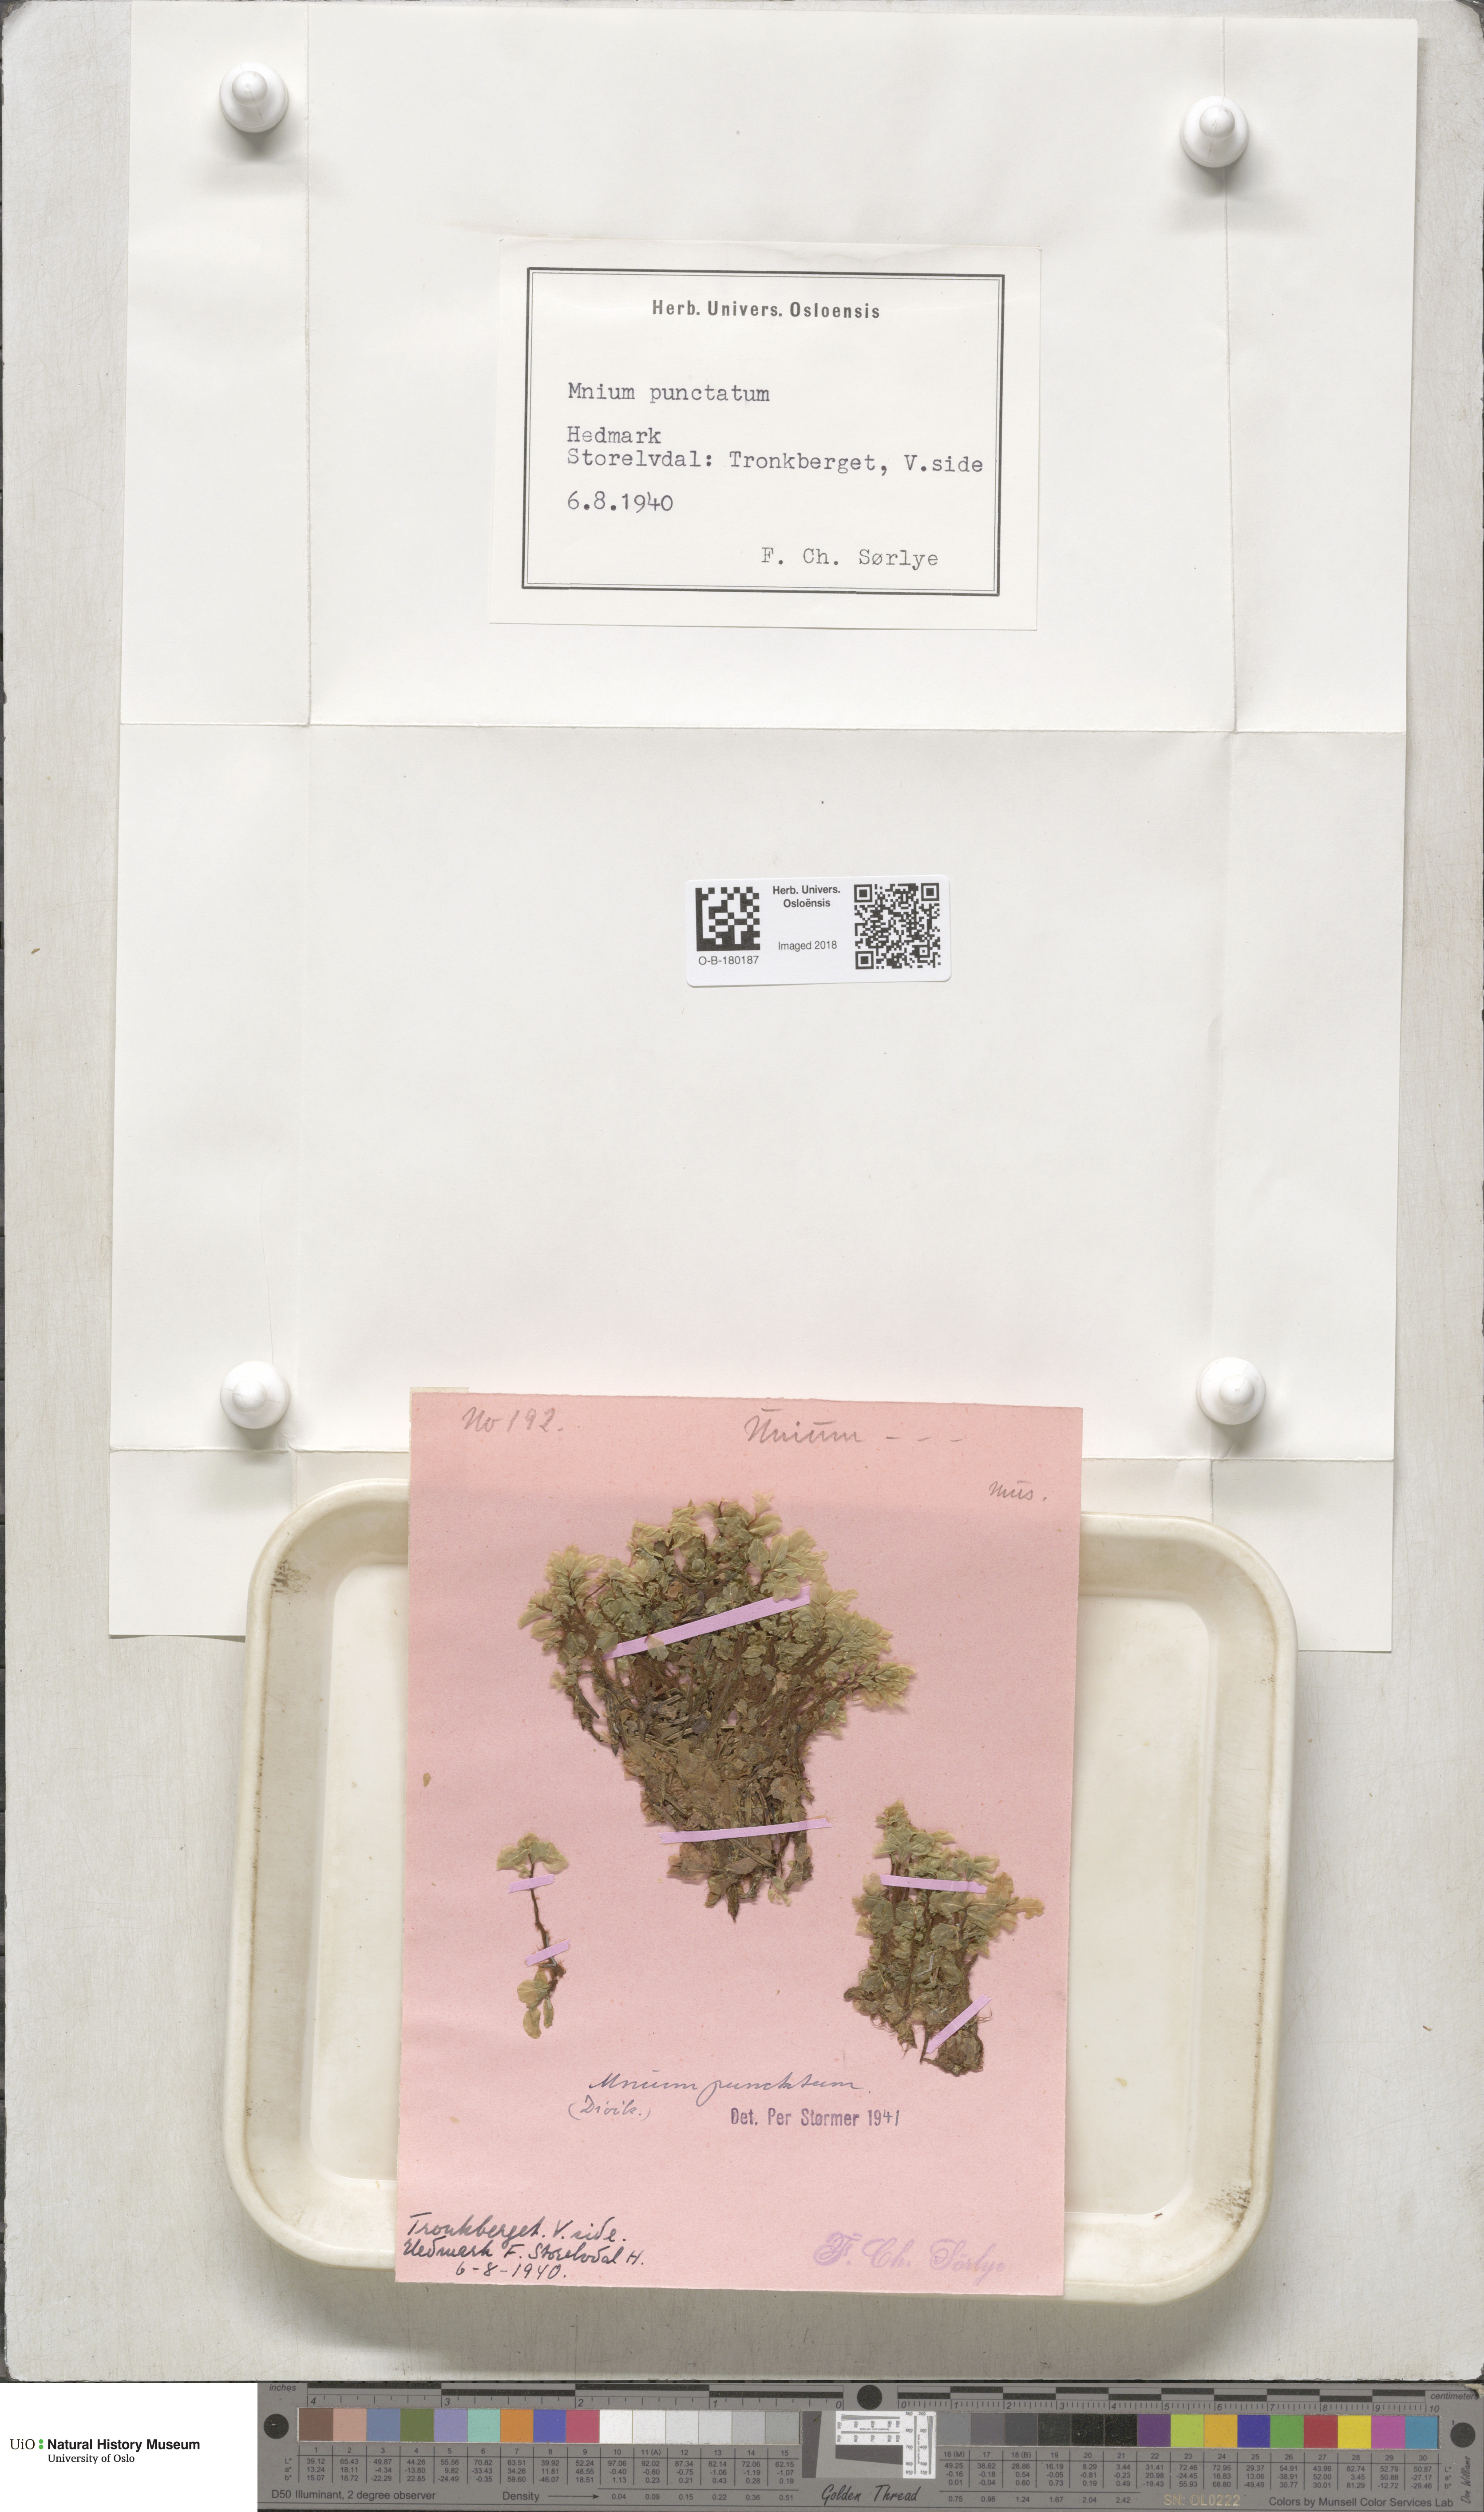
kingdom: Plantae
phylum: Bryophyta
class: Bryopsida
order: Bryales
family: Mniaceae
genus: Rhizomnium
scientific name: Rhizomnium punctatum
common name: Dotted leafy moss
